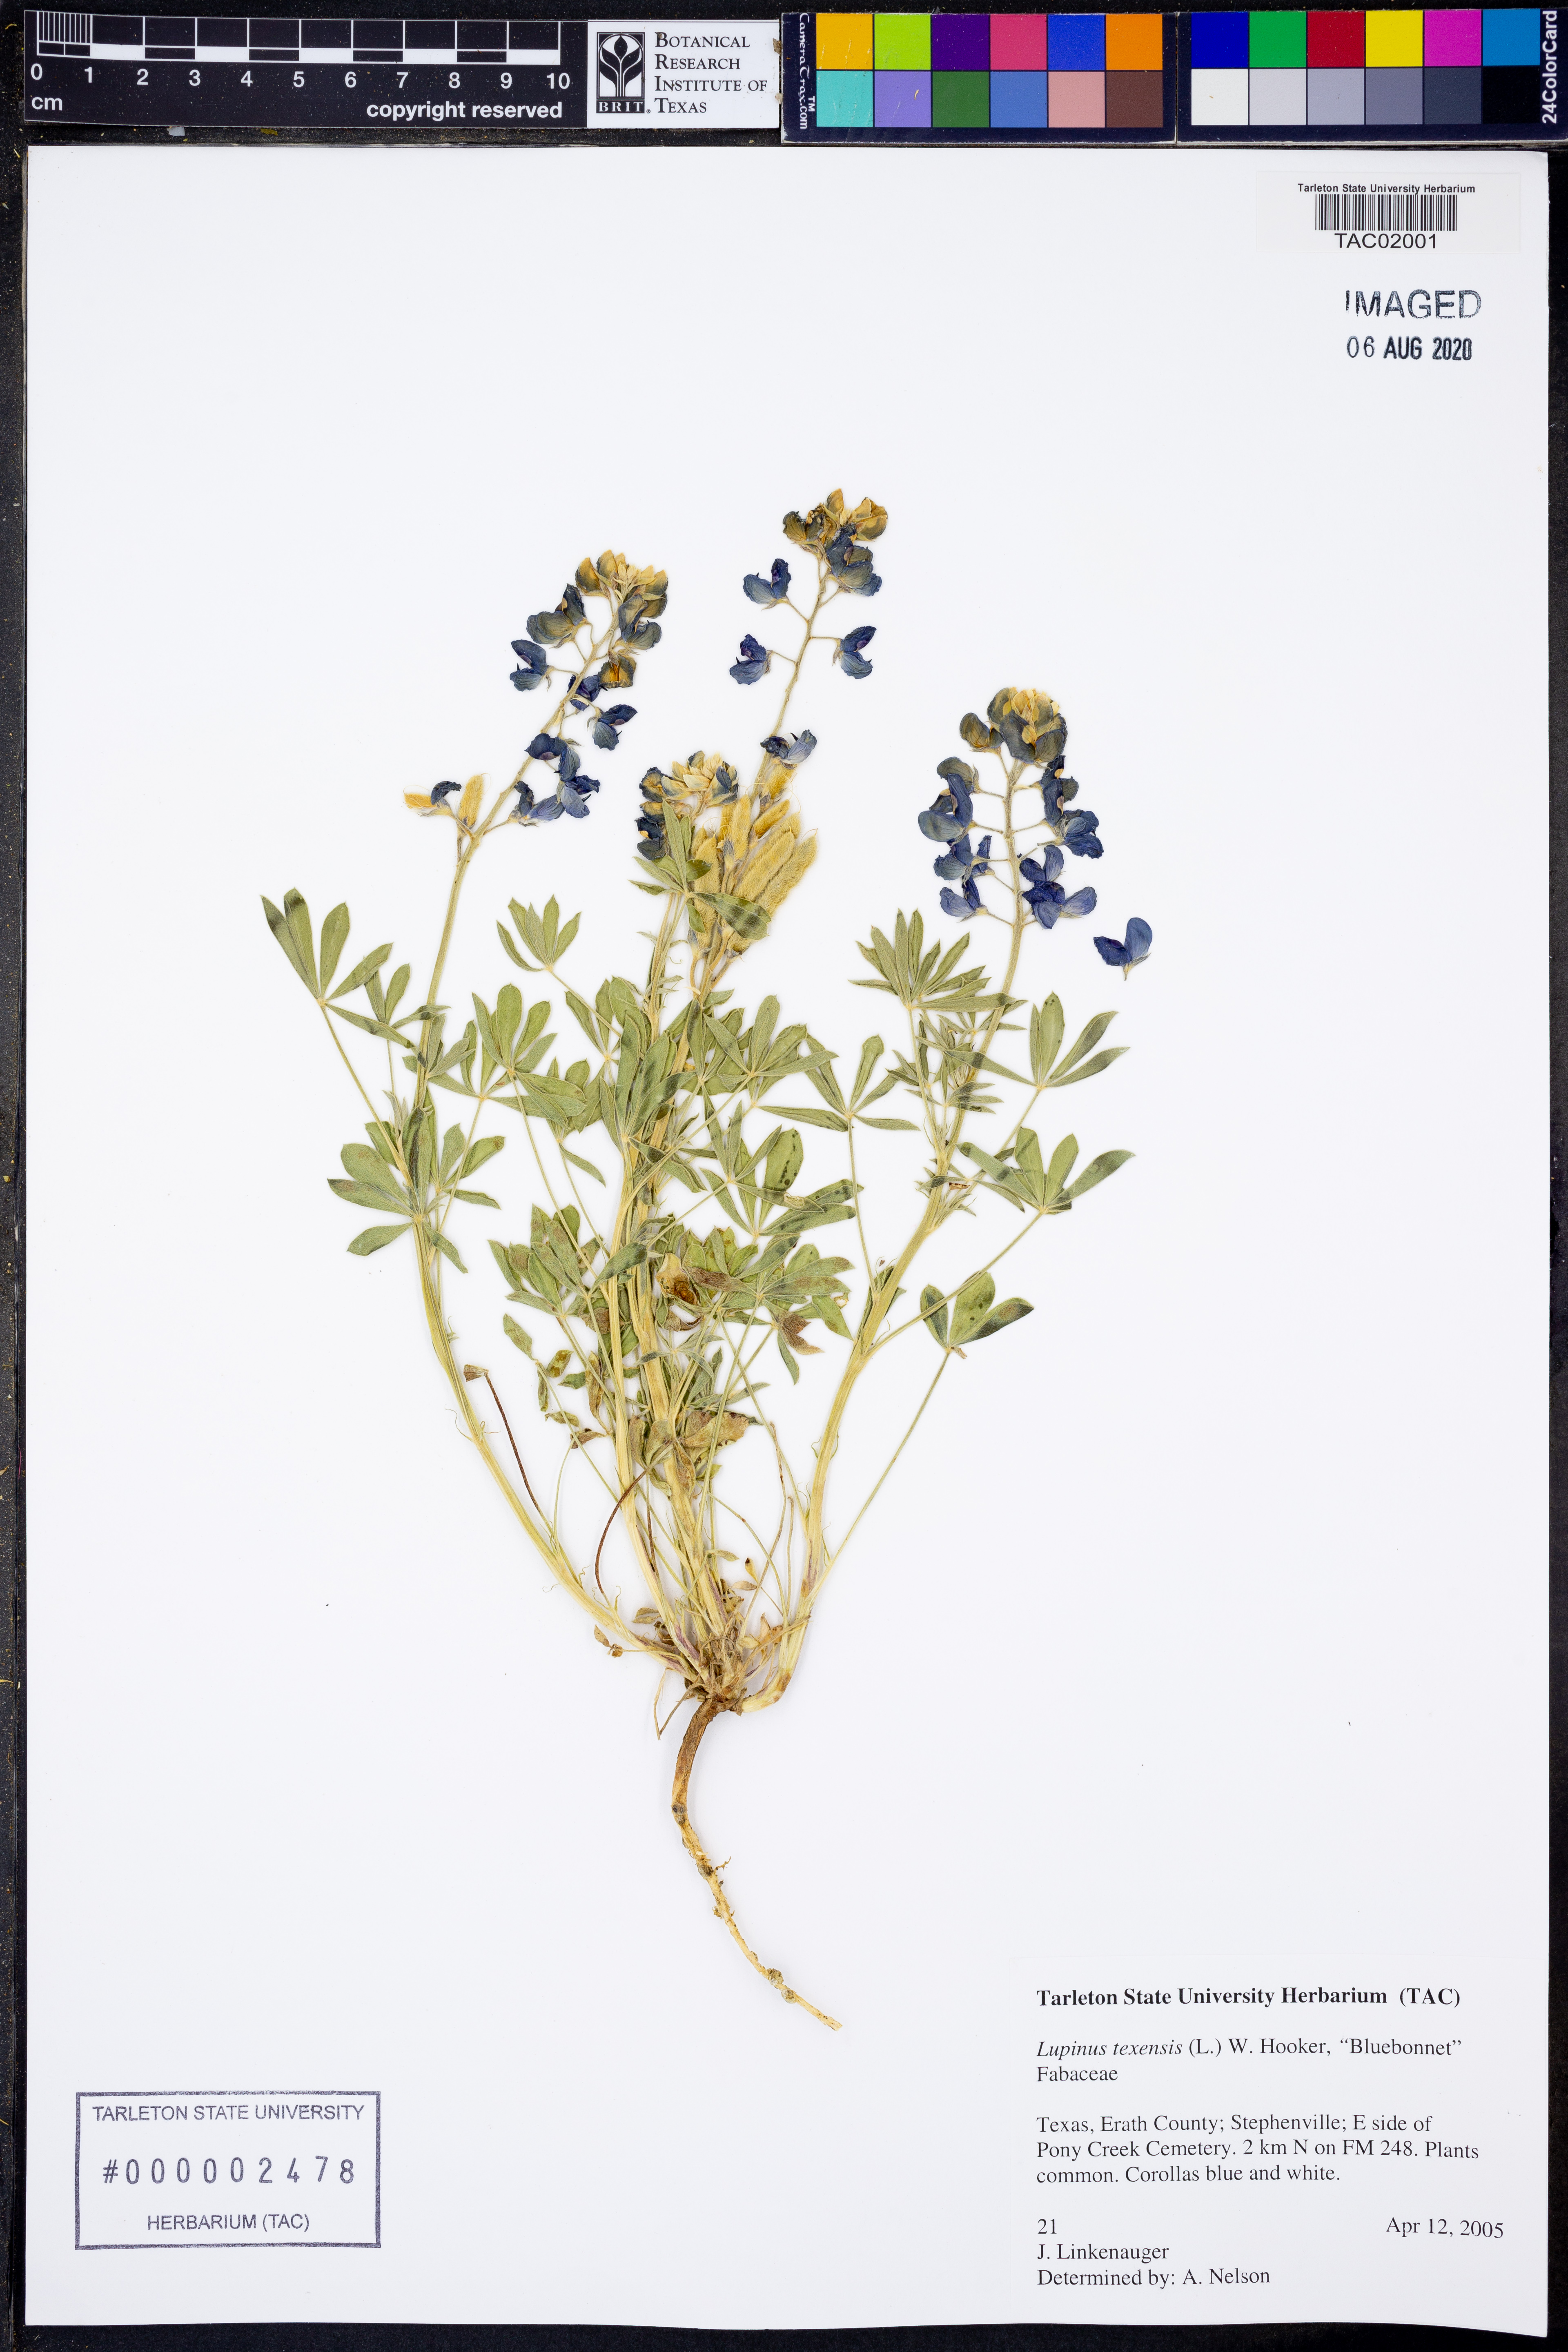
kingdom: Plantae
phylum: Tracheophyta
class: Magnoliopsida
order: Fabales
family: Fabaceae
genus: Lupinus
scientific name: Lupinus texensis
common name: Texas bluebonnet
